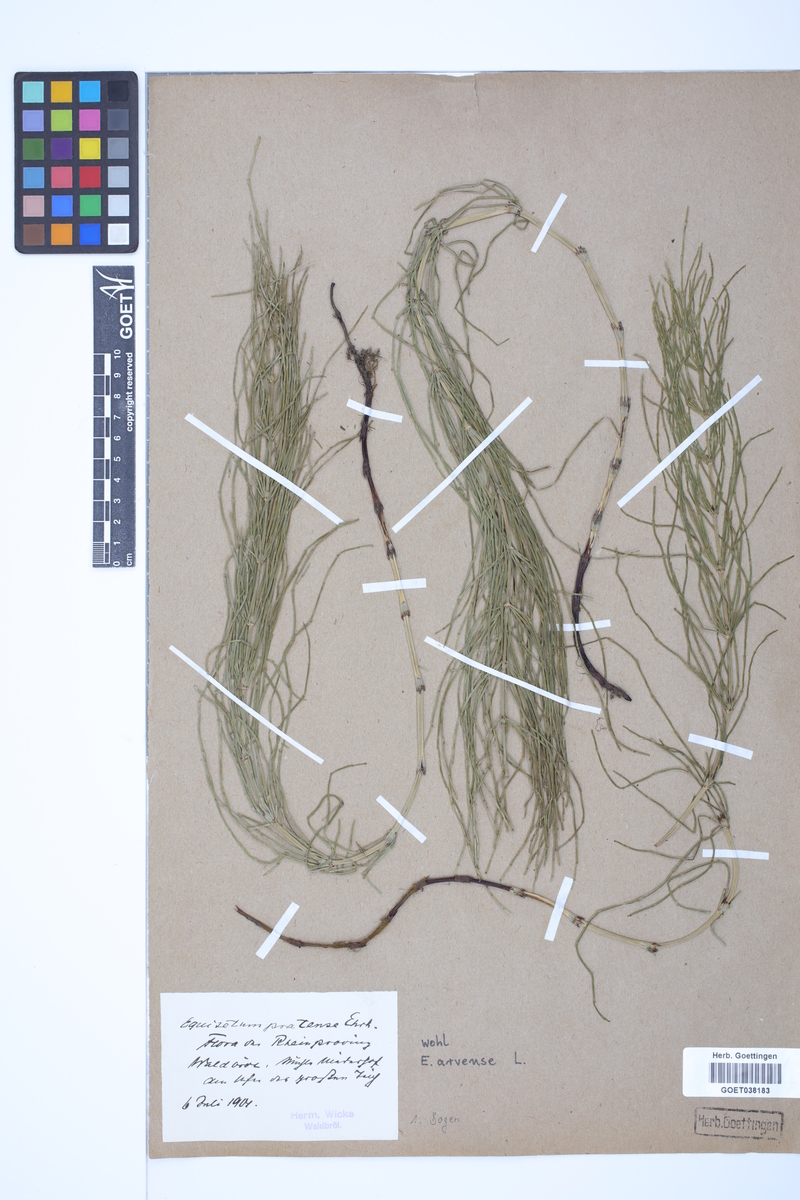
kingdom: Plantae
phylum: Tracheophyta
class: Polypodiopsida
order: Equisetales
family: Equisetaceae
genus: Equisetum
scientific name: Equisetum arvense
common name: Field horsetail
